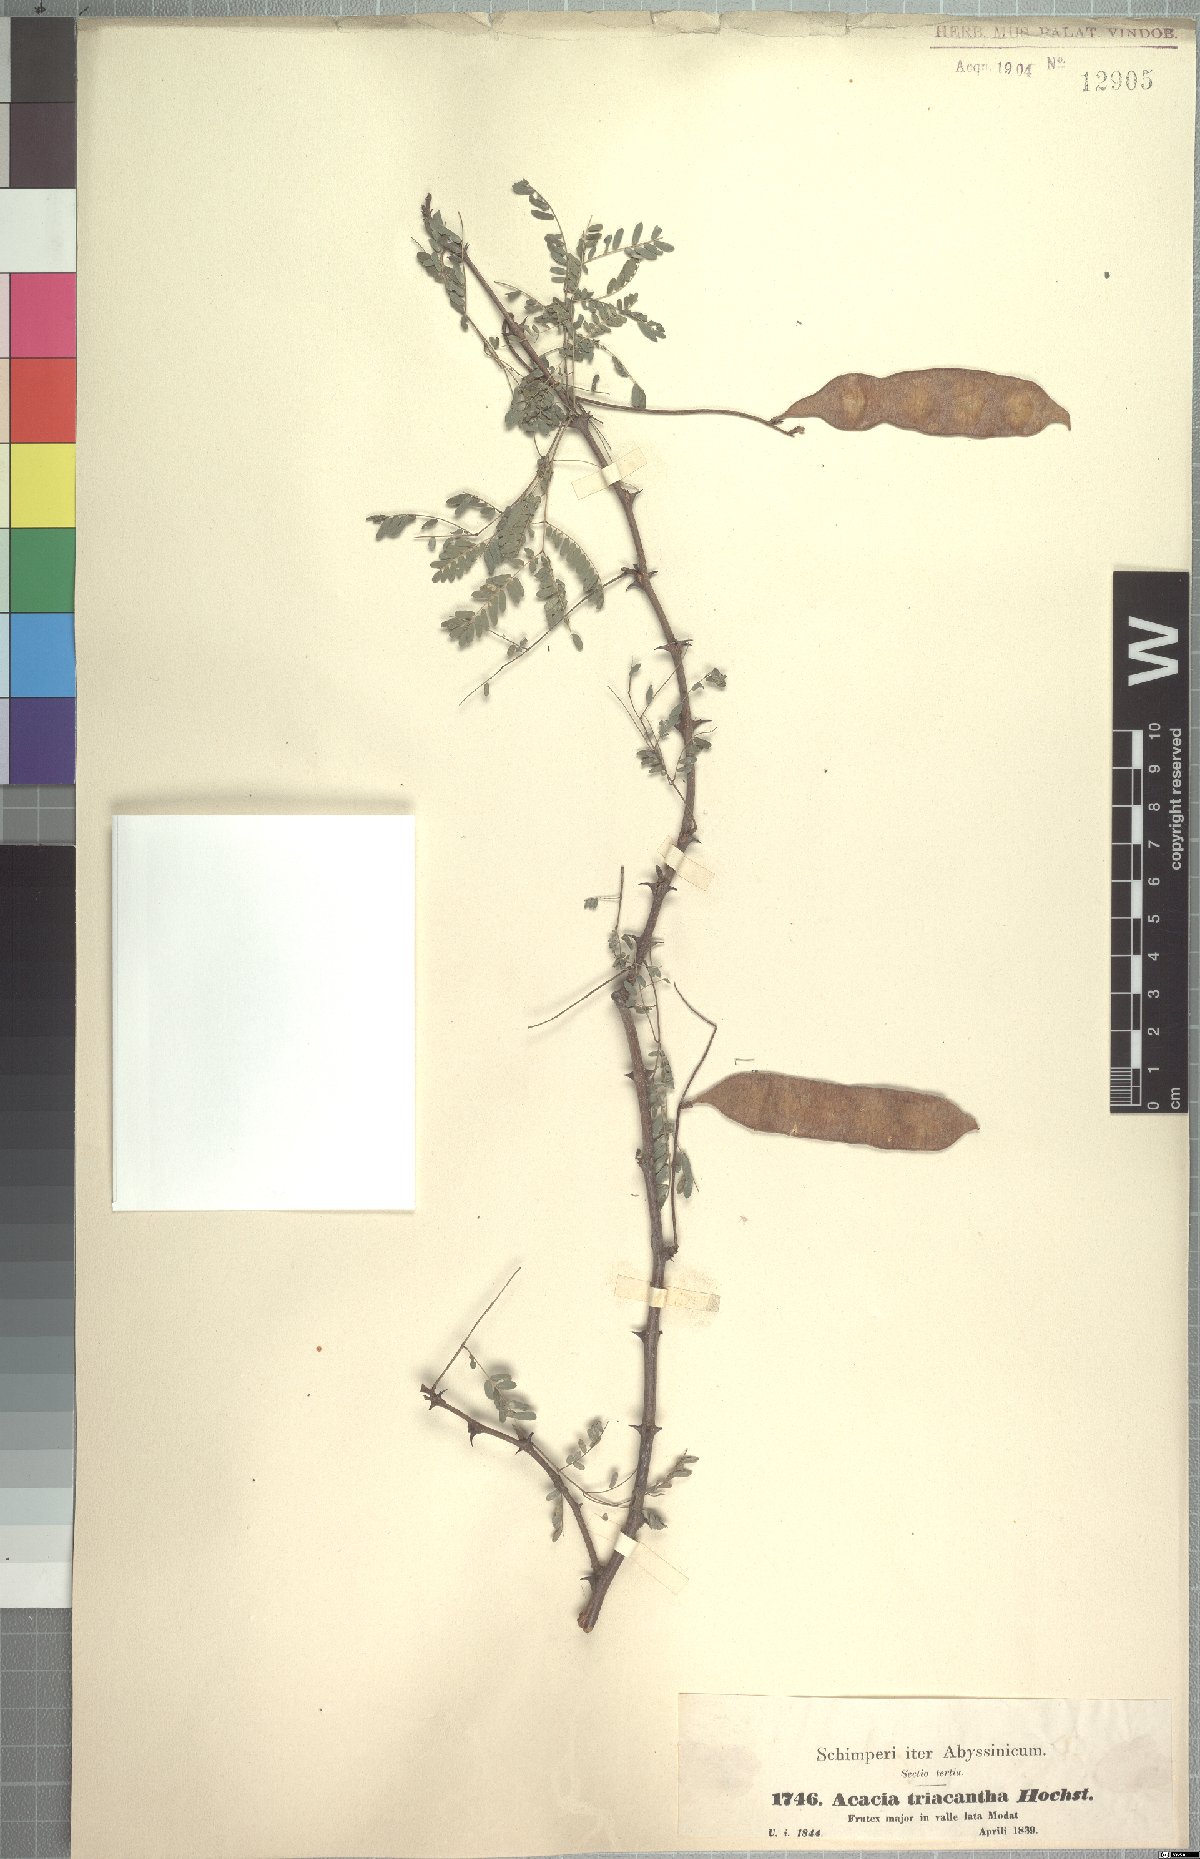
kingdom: Plantae
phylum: Tracheophyta
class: Magnoliopsida
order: Fabales
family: Fabaceae
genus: Senegalia
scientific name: Senegalia asak
